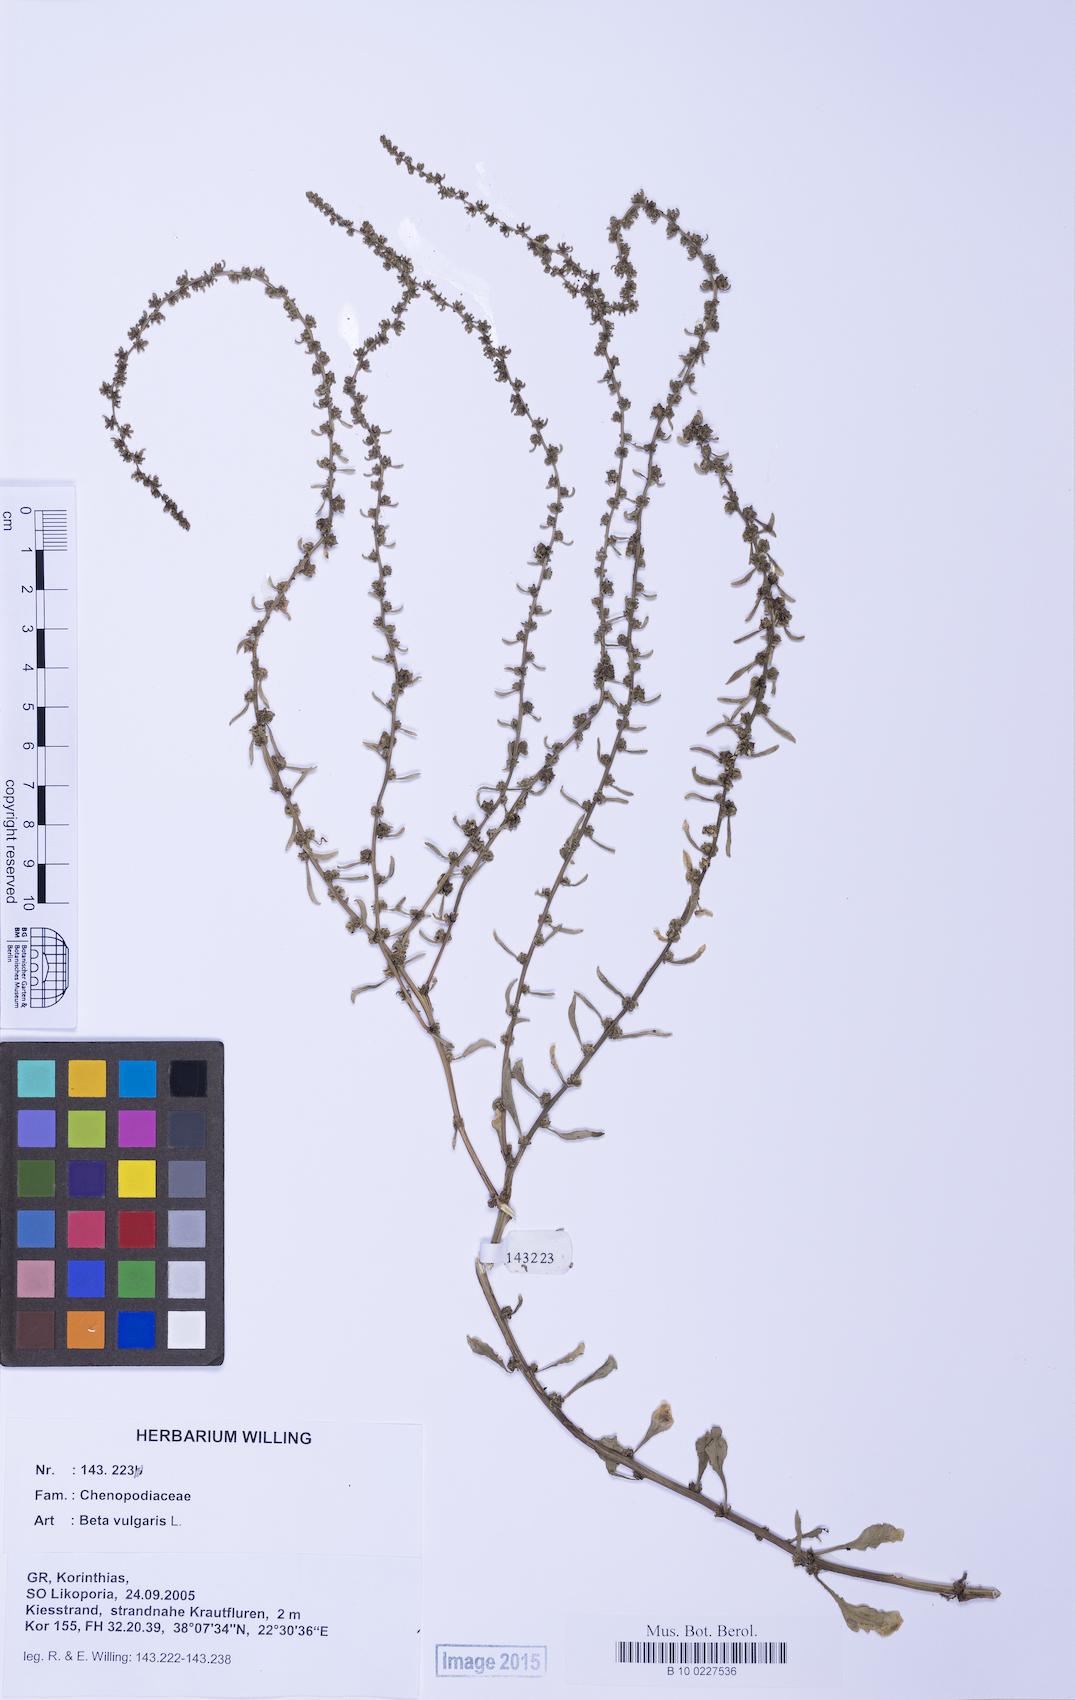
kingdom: Plantae
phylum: Tracheophyta
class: Magnoliopsida
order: Caryophyllales
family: Amaranthaceae
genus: Beta
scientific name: Beta macrocarpa
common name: Beet
